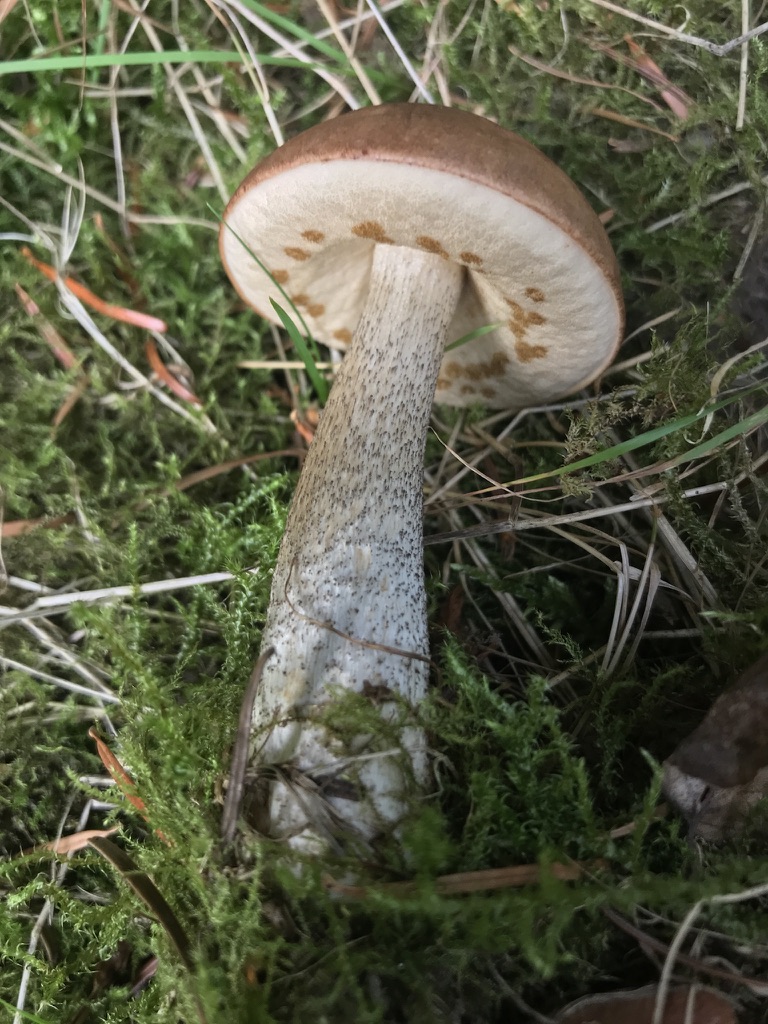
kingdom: Fungi
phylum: Basidiomycota
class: Agaricomycetes
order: Boletales
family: Boletaceae
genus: Leccinum
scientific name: Leccinum scabrum
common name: brun skælrørhat
